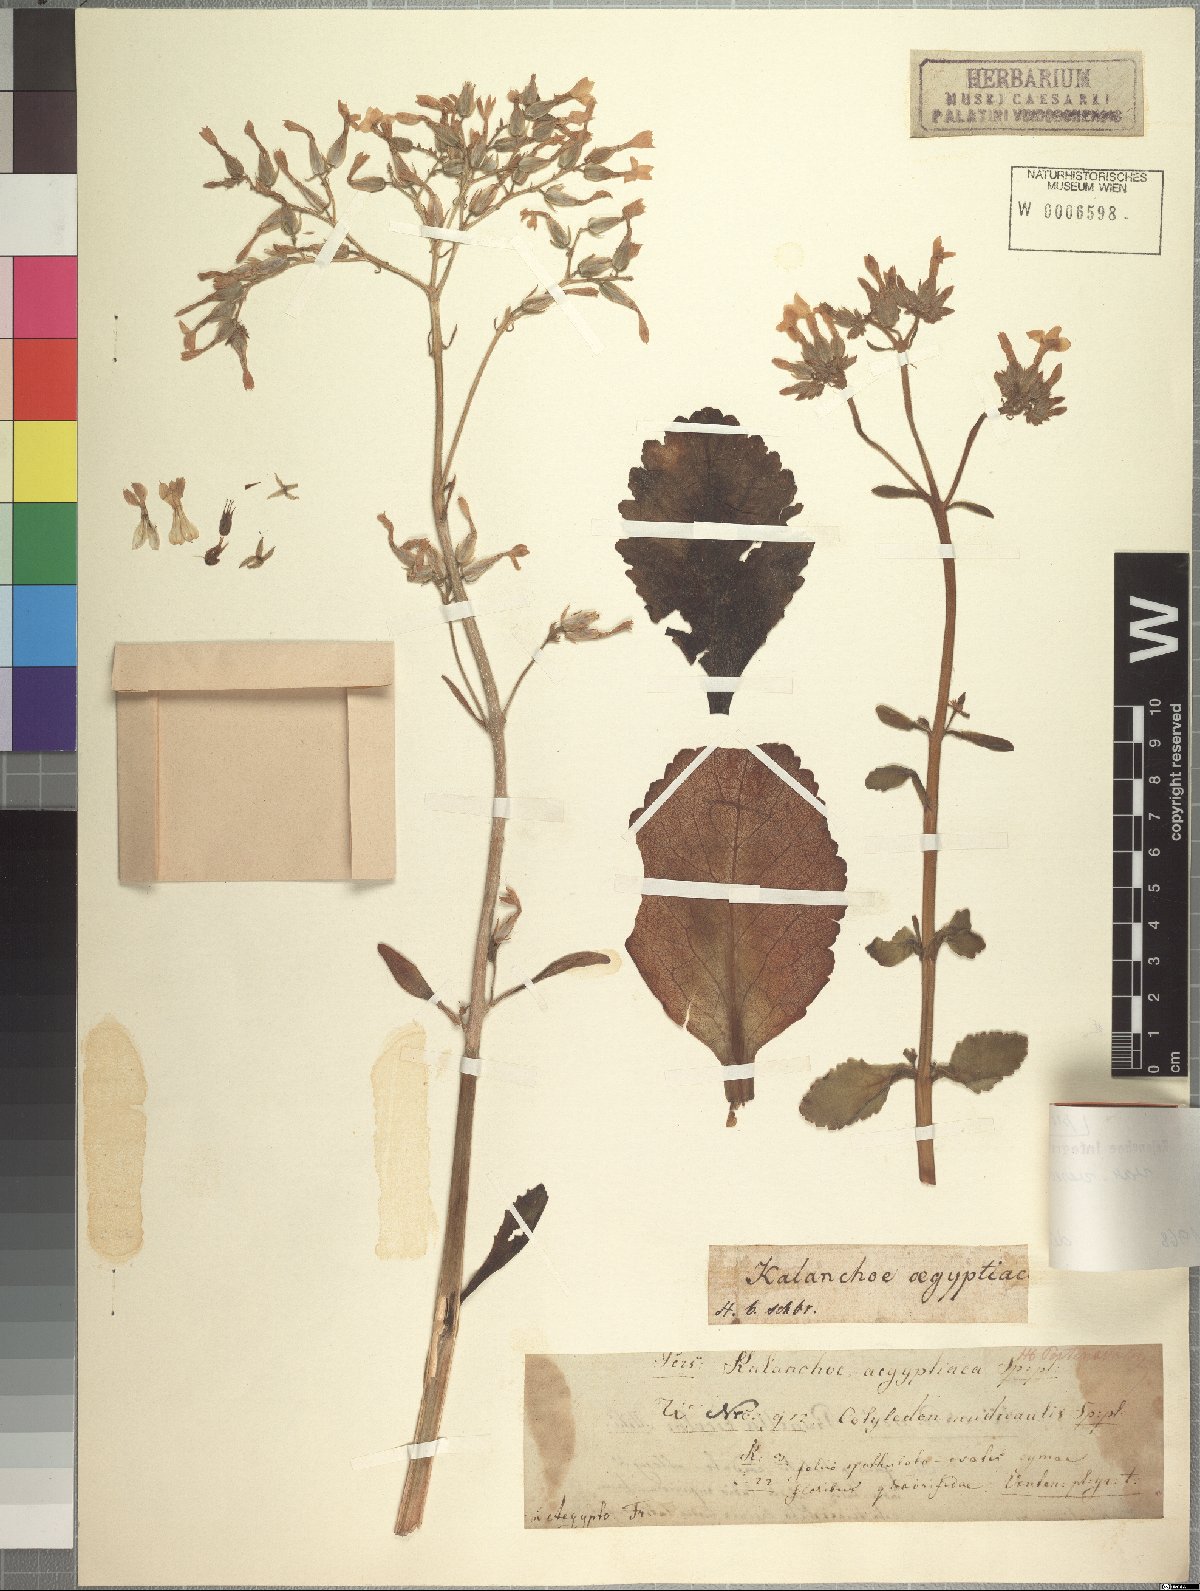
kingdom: Plantae
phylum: Tracheophyta
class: Magnoliopsida
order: Saxifragales
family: Crassulaceae
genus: Kalanchoe
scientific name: Kalanchoe crenata
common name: Neverdie
